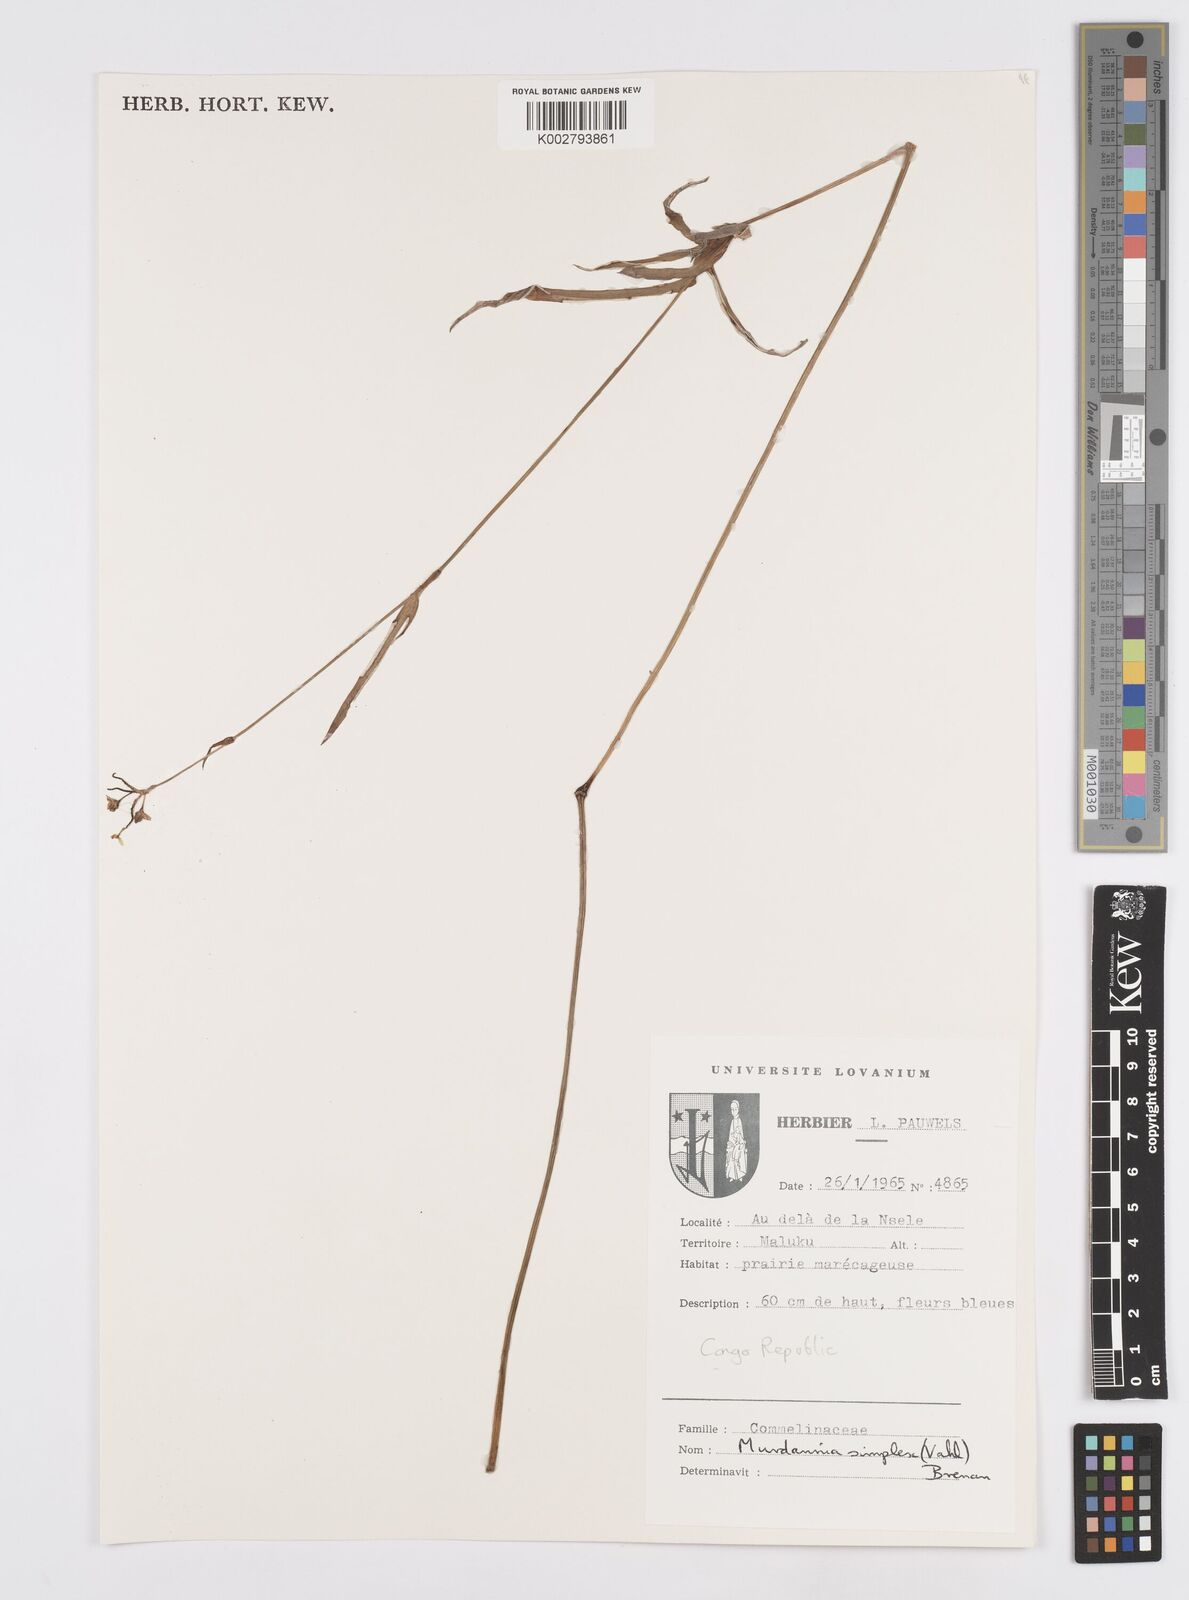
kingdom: Plantae
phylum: Tracheophyta
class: Liliopsida
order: Commelinales
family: Commelinaceae
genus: Murdannia
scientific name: Murdannia simplex
